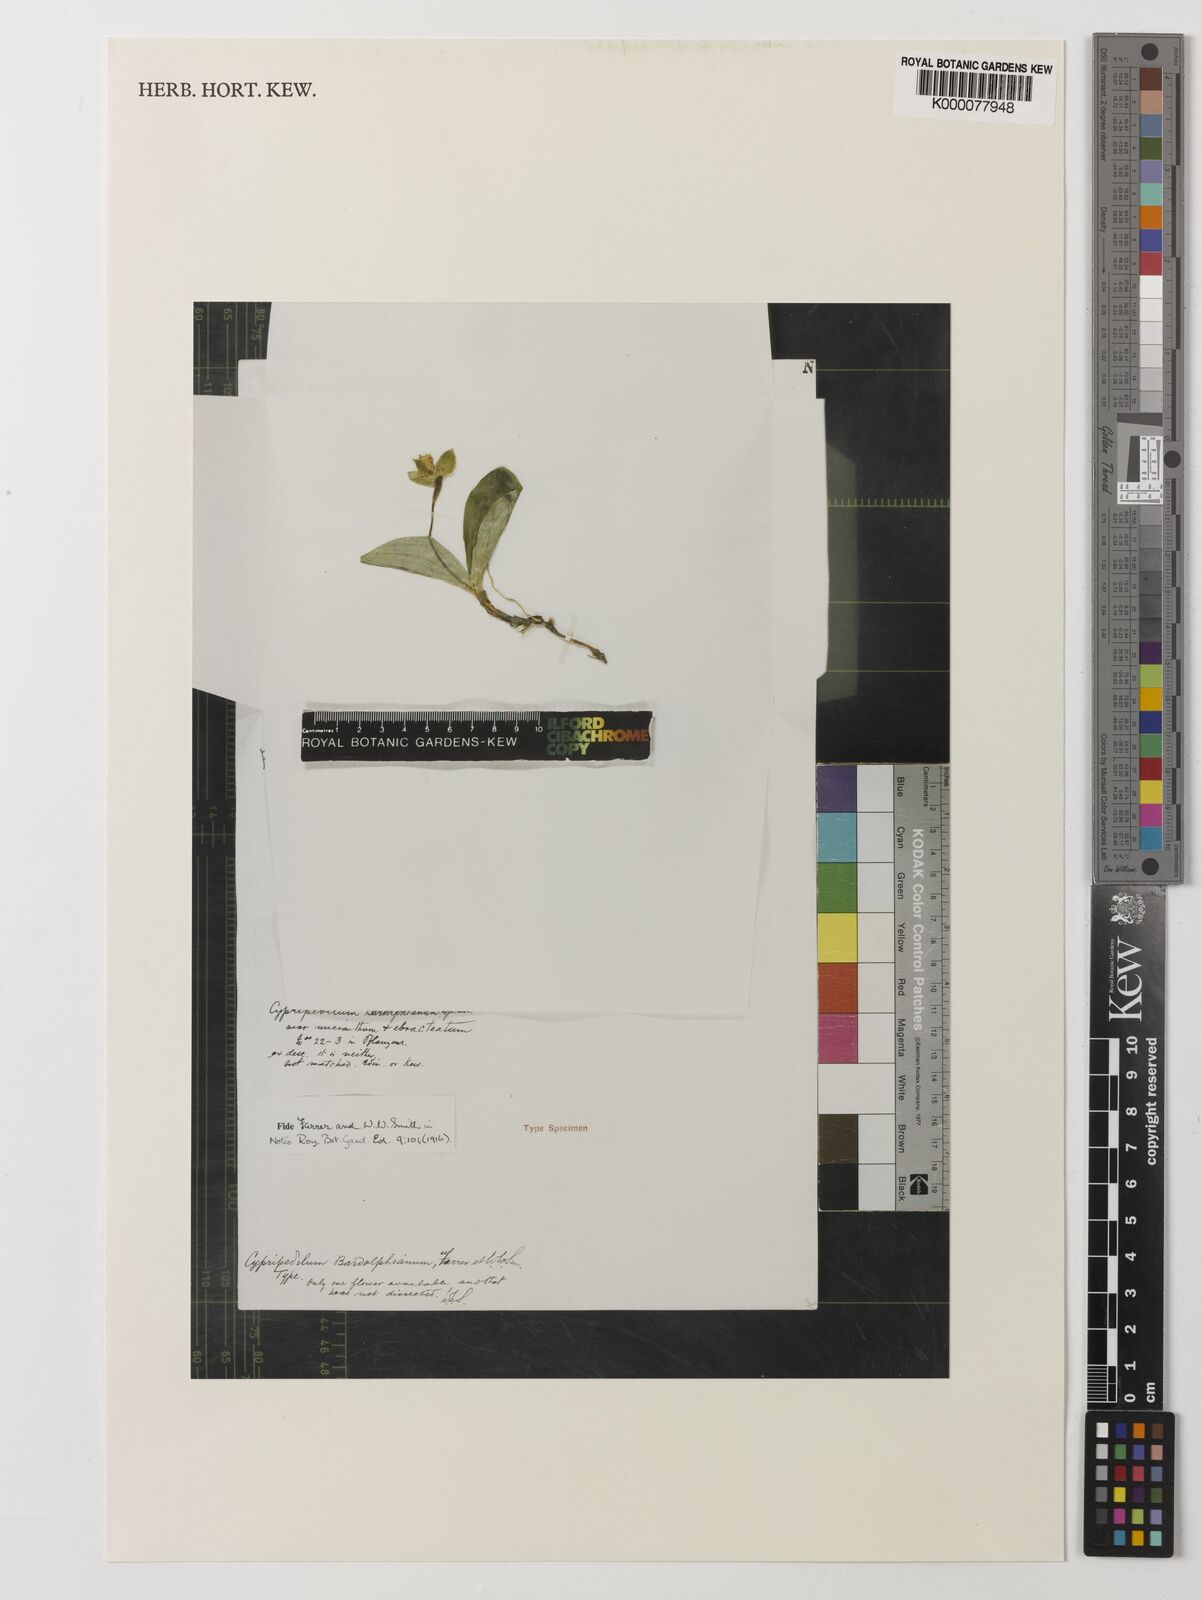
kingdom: Plantae
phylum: Tracheophyta
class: Liliopsida
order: Asparagales
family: Orchidaceae
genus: Cypripedium
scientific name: Cypripedium bardolphianum
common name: Bardolph's cypripedium
